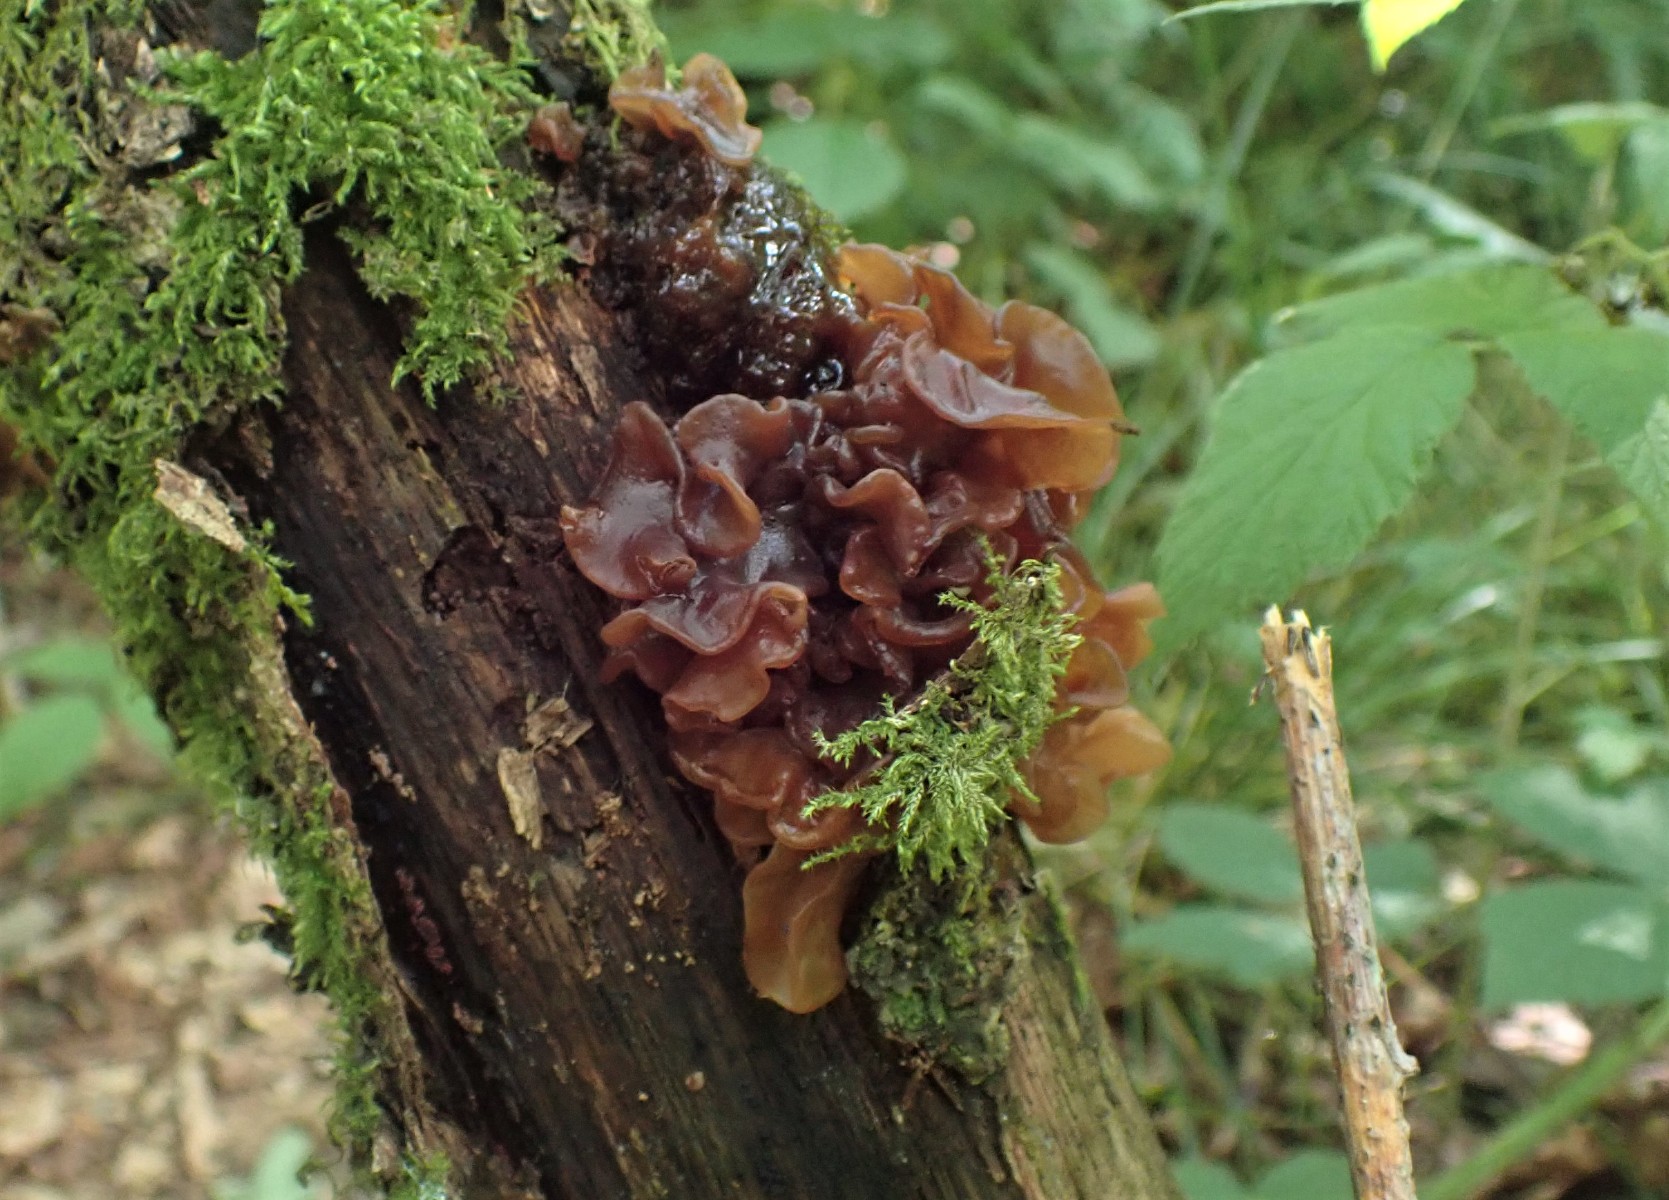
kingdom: Fungi
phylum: Basidiomycota
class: Tremellomycetes
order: Tremellales
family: Tremellaceae
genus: Phaeotremella
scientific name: Phaeotremella frondosa
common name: kæmpe-bævresvamp
